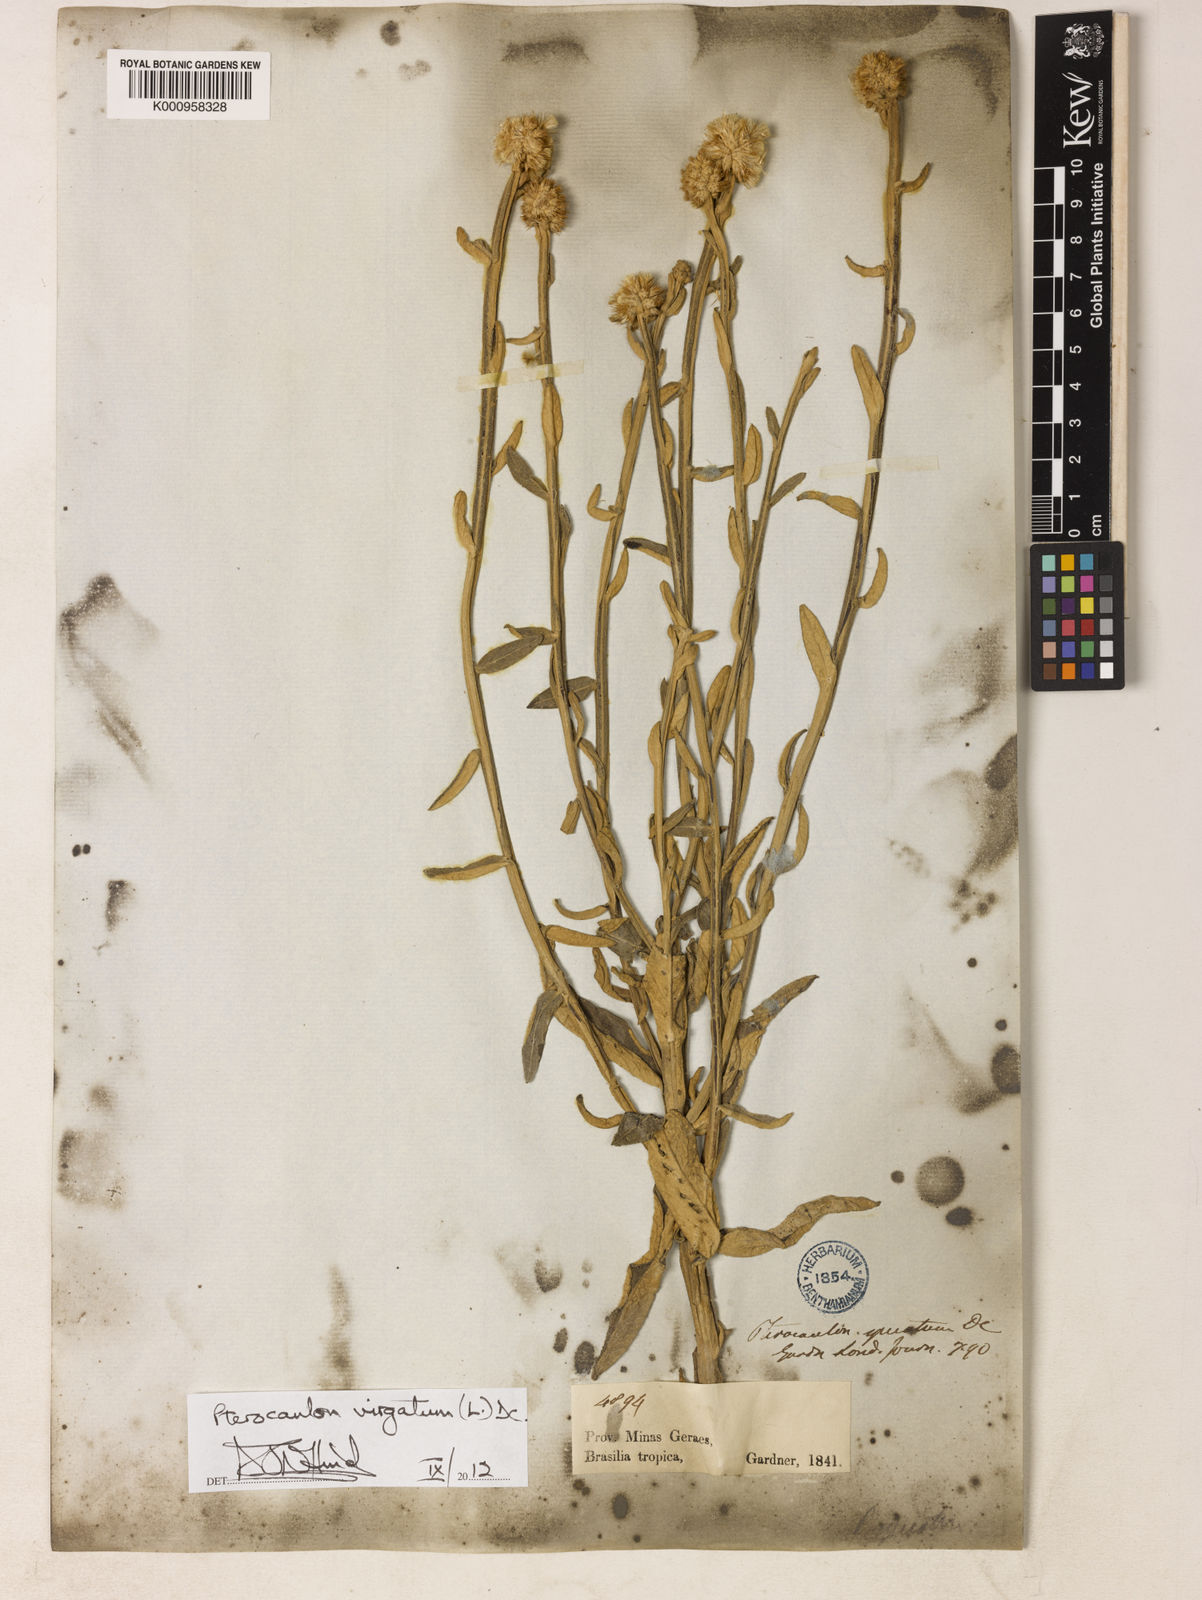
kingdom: Plantae
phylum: Tracheophyta
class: Magnoliopsida
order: Asterales
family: Asteraceae
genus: Pterocaulon
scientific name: Pterocaulon virgatum
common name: Wand blackroot
